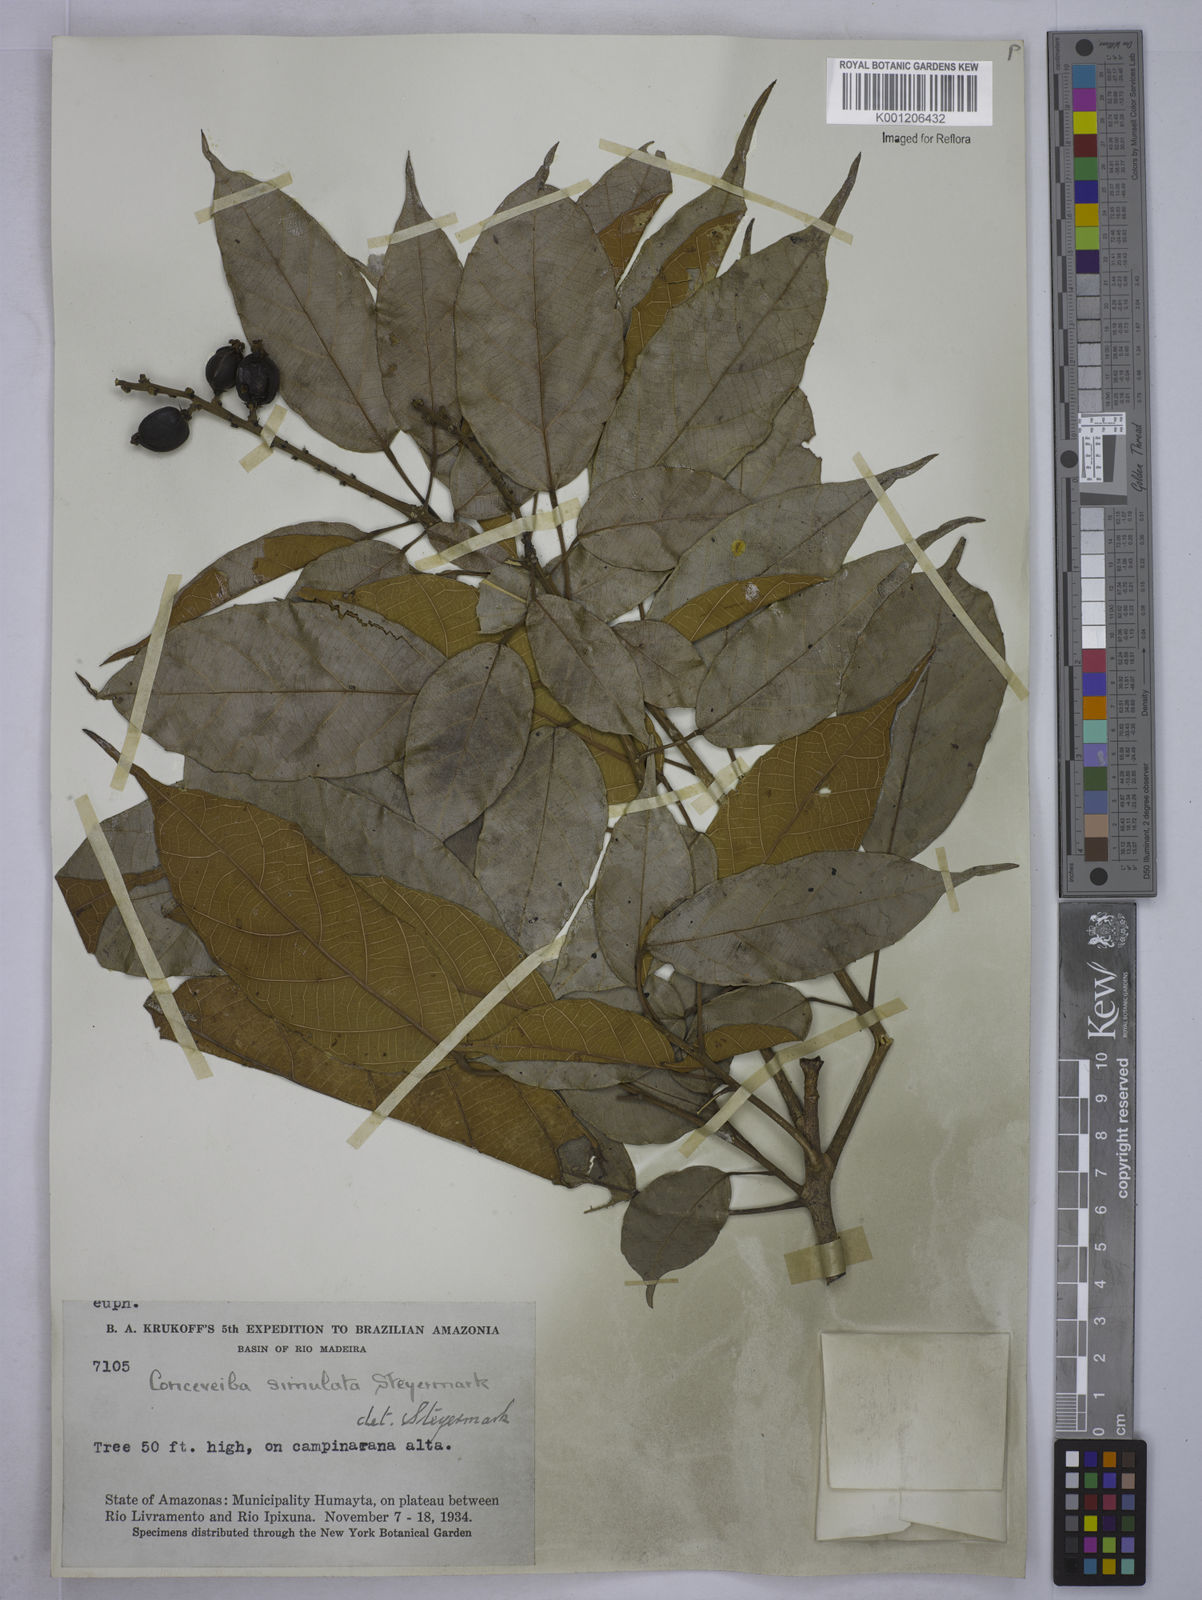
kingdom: Plantae
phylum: Tracheophyta
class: Magnoliopsida
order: Malpighiales
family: Euphorbiaceae
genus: Conceveiba
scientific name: Conceveiba krukoffii
